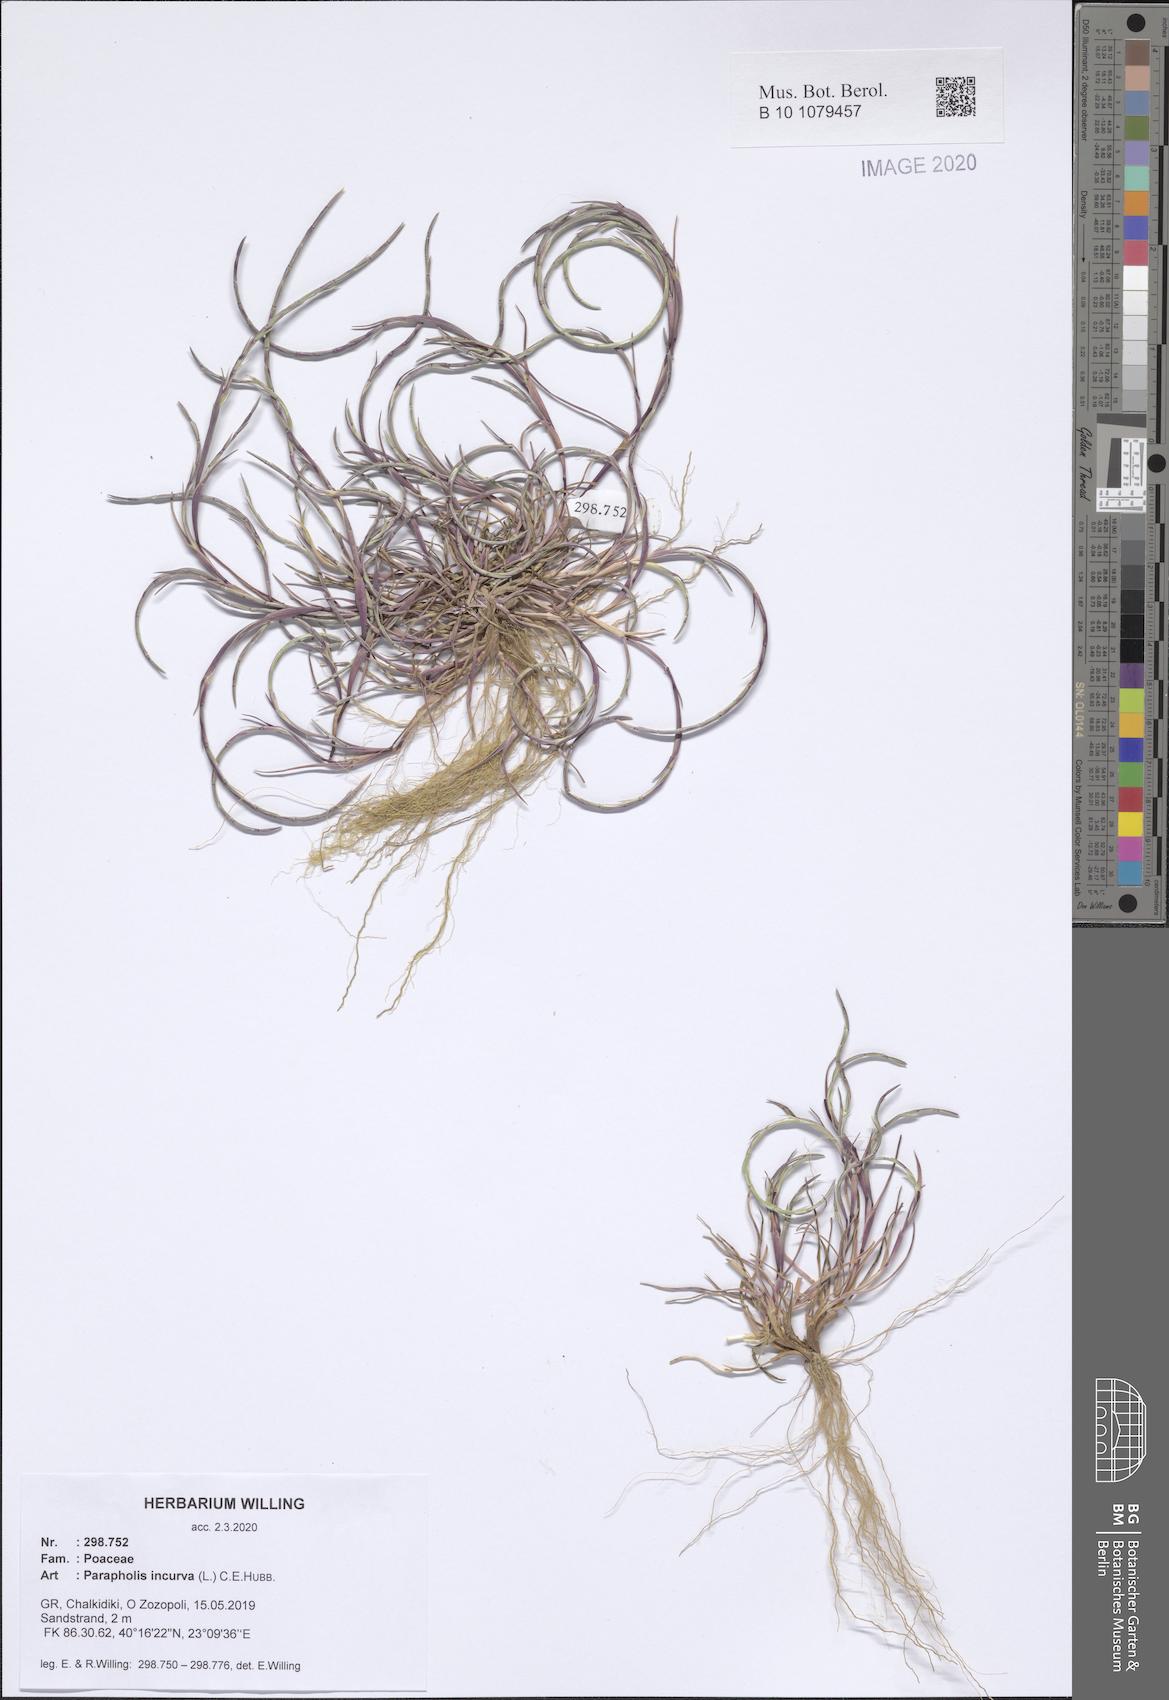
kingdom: Plantae
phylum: Tracheophyta
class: Liliopsida
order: Poales
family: Poaceae
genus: Parapholis
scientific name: Parapholis incurva
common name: Curved sicklegrass
